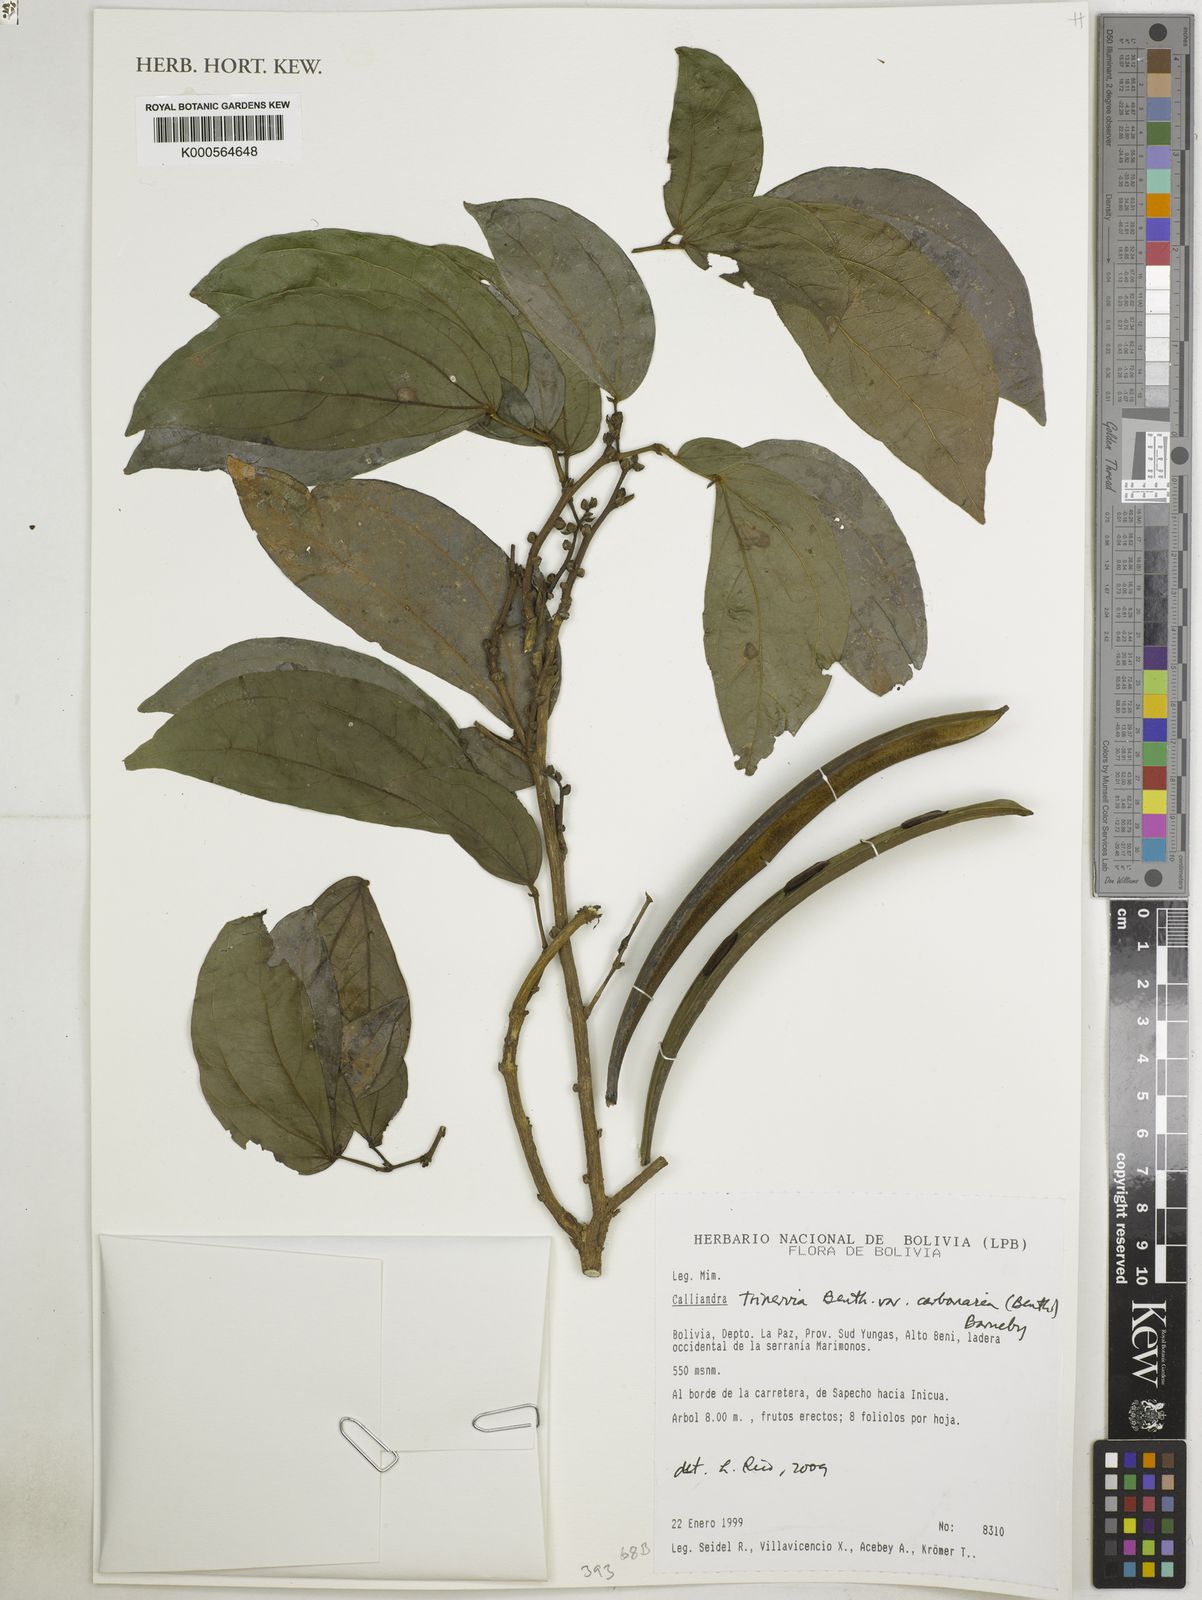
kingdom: Plantae
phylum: Tracheophyta
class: Magnoliopsida
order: Fabales
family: Fabaceae
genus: Calliandra
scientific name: Calliandra trinervia
